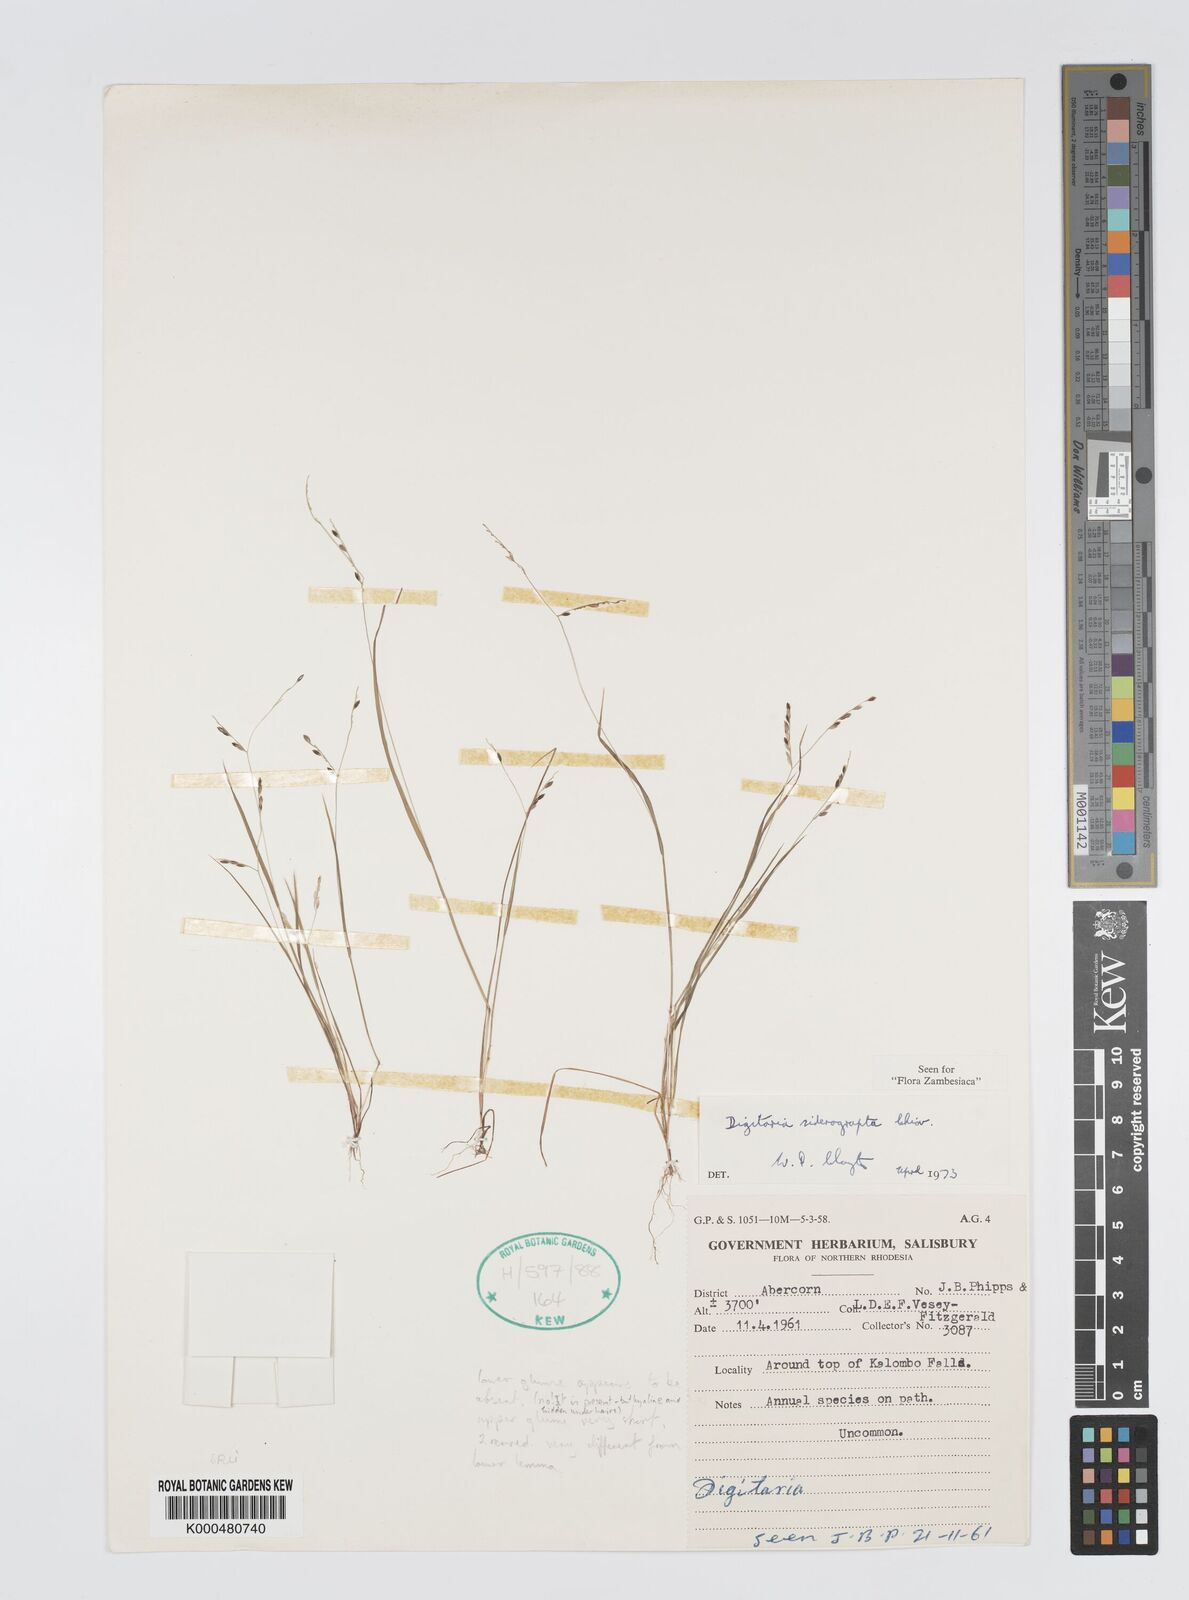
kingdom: Plantae
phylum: Tracheophyta
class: Liliopsida
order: Poales
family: Poaceae
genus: Digitaria
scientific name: Digitaria siderograpta
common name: Crab grass
